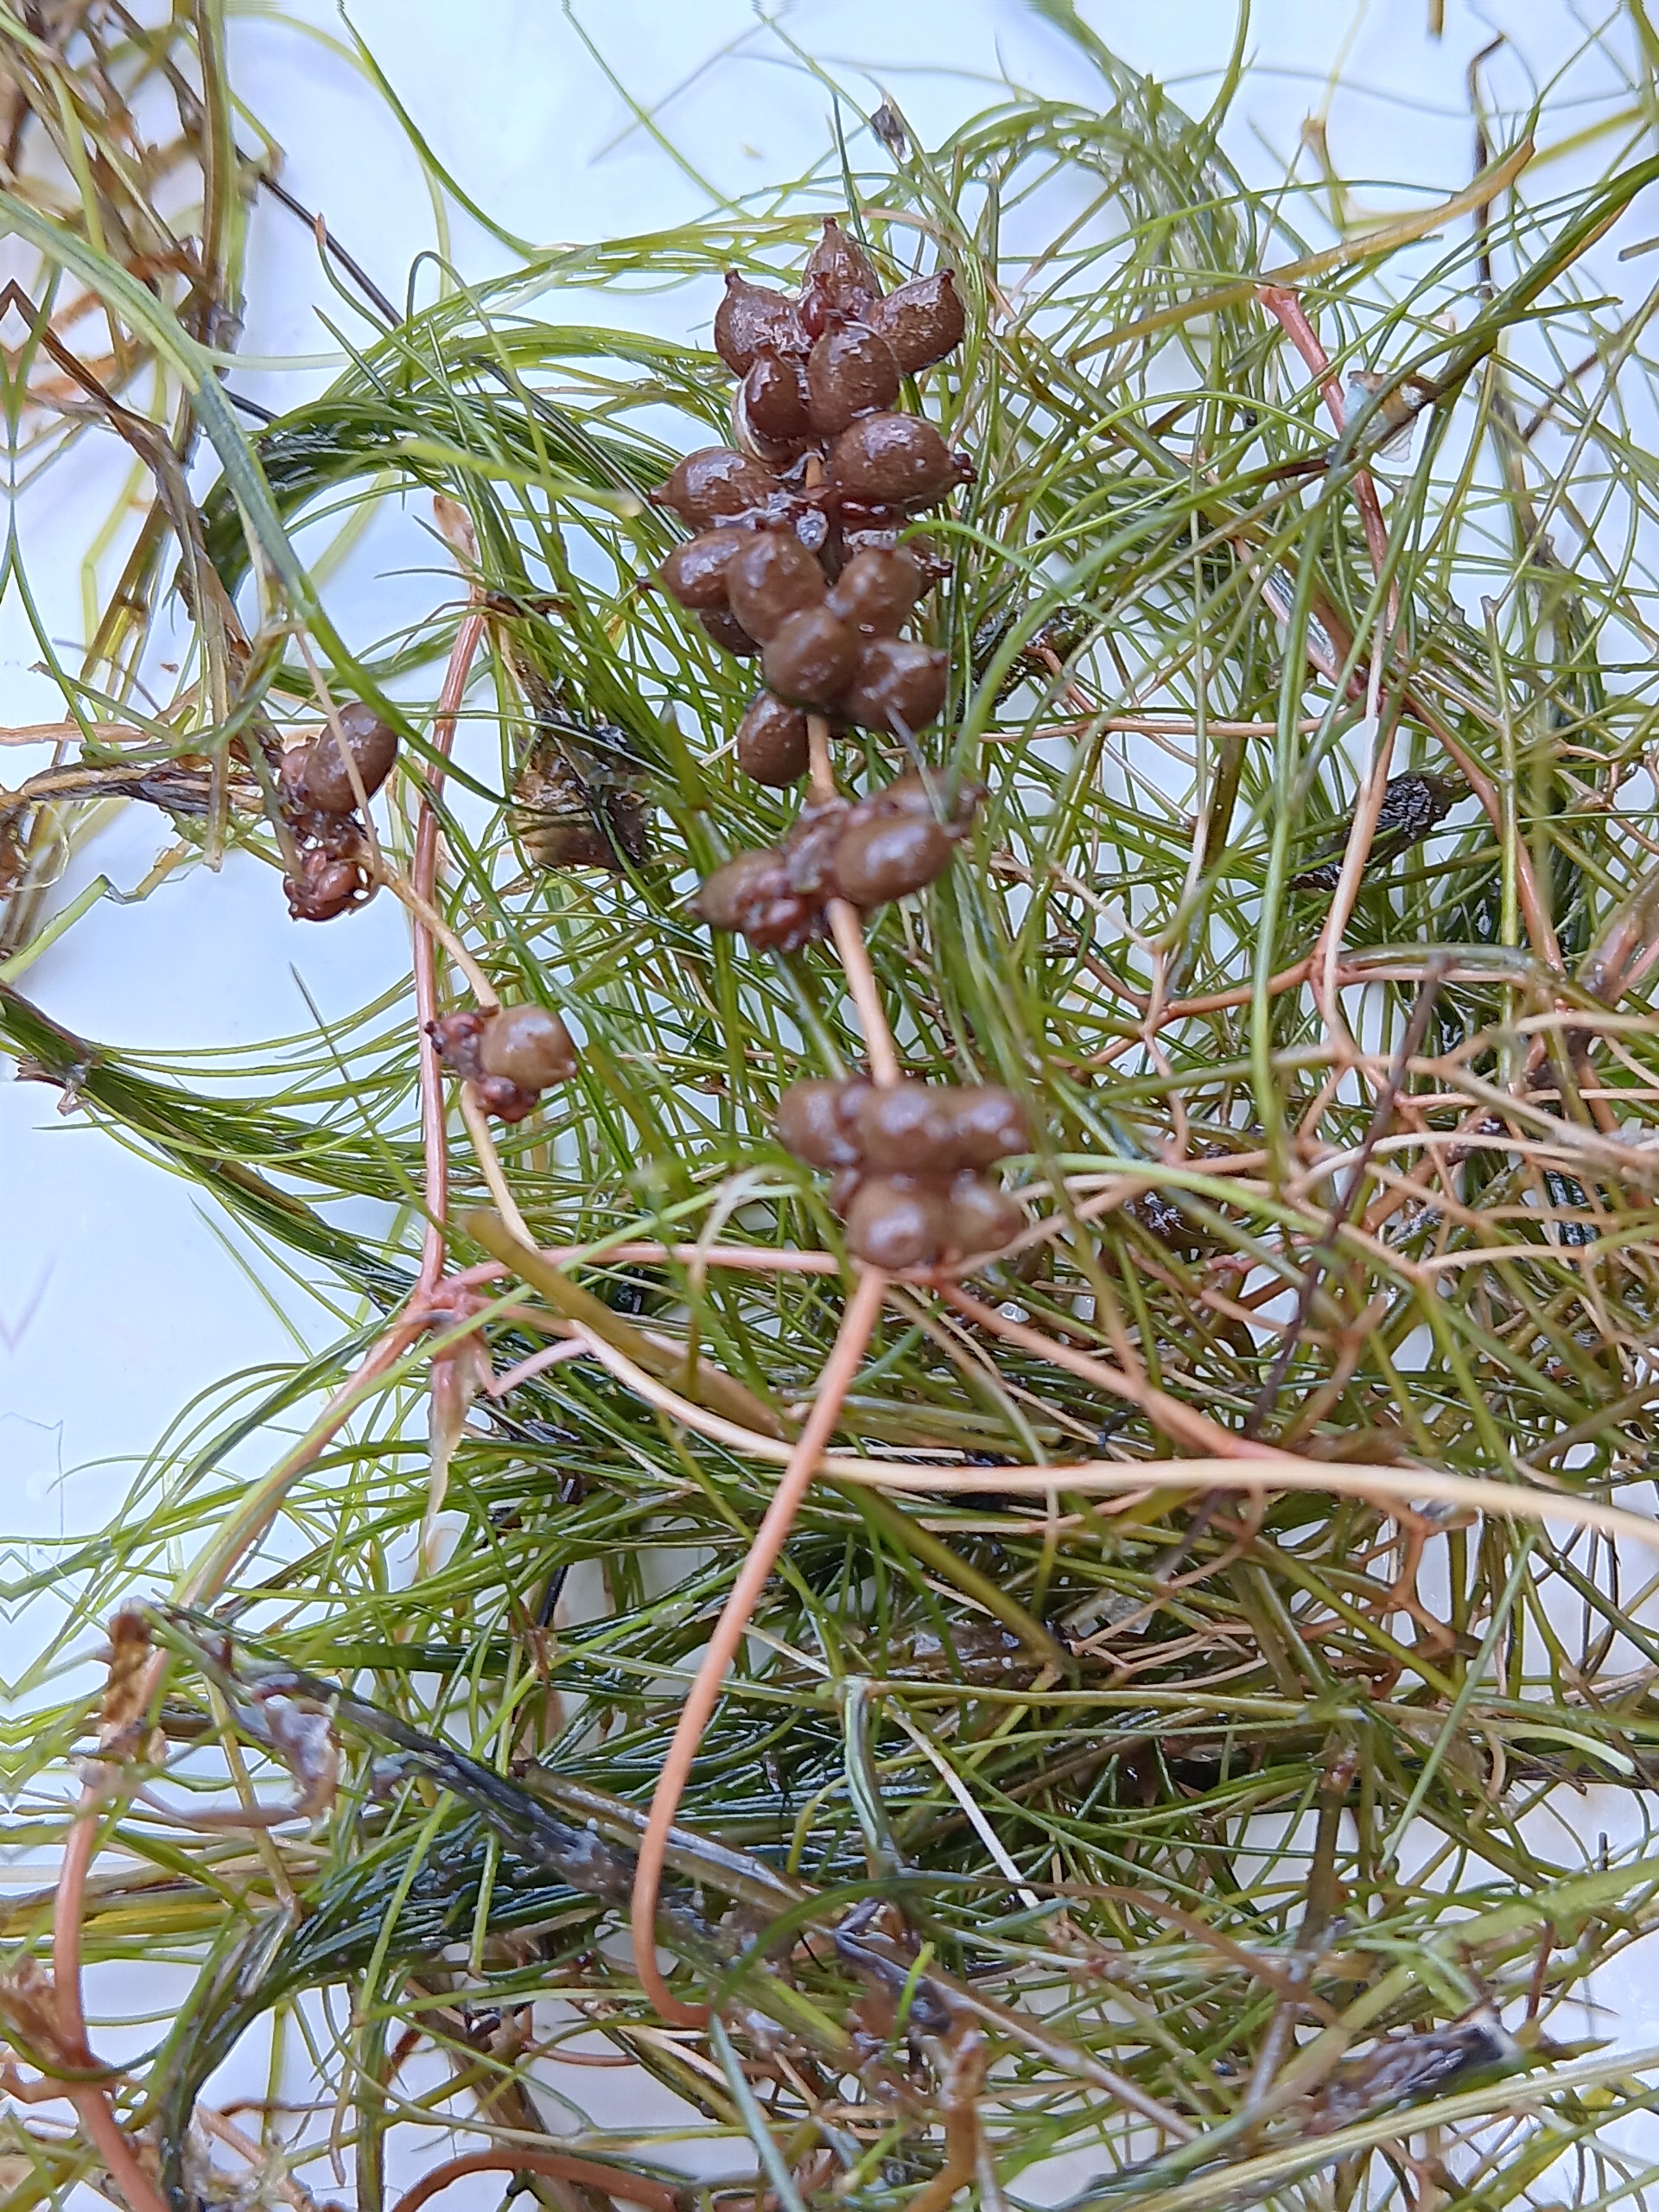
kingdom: Plantae
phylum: Tracheophyta
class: Liliopsida
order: Alismatales
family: Potamogetonaceae
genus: Stuckenia
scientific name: Stuckenia pectinata
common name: Børstebladet vandaks
